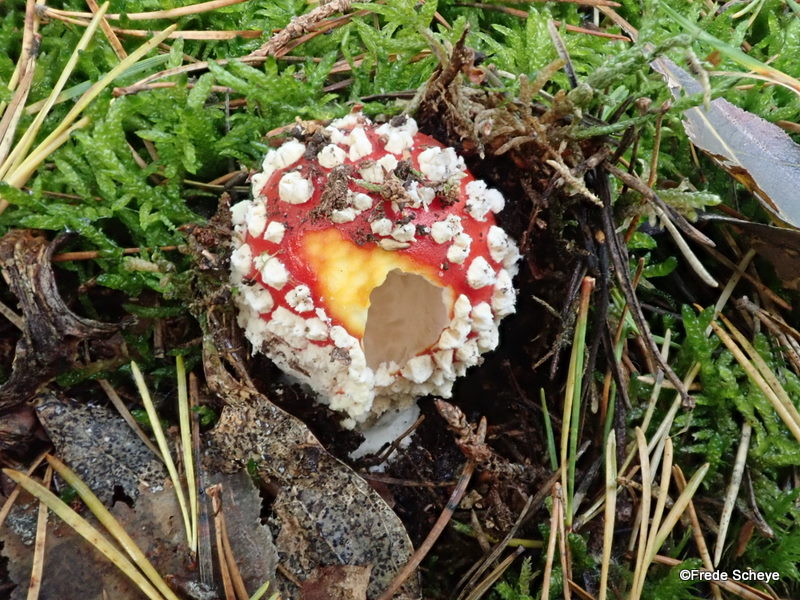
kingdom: Fungi
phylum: Basidiomycota
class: Agaricomycetes
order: Agaricales
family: Amanitaceae
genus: Amanita
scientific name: Amanita muscaria
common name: rød fluesvamp
